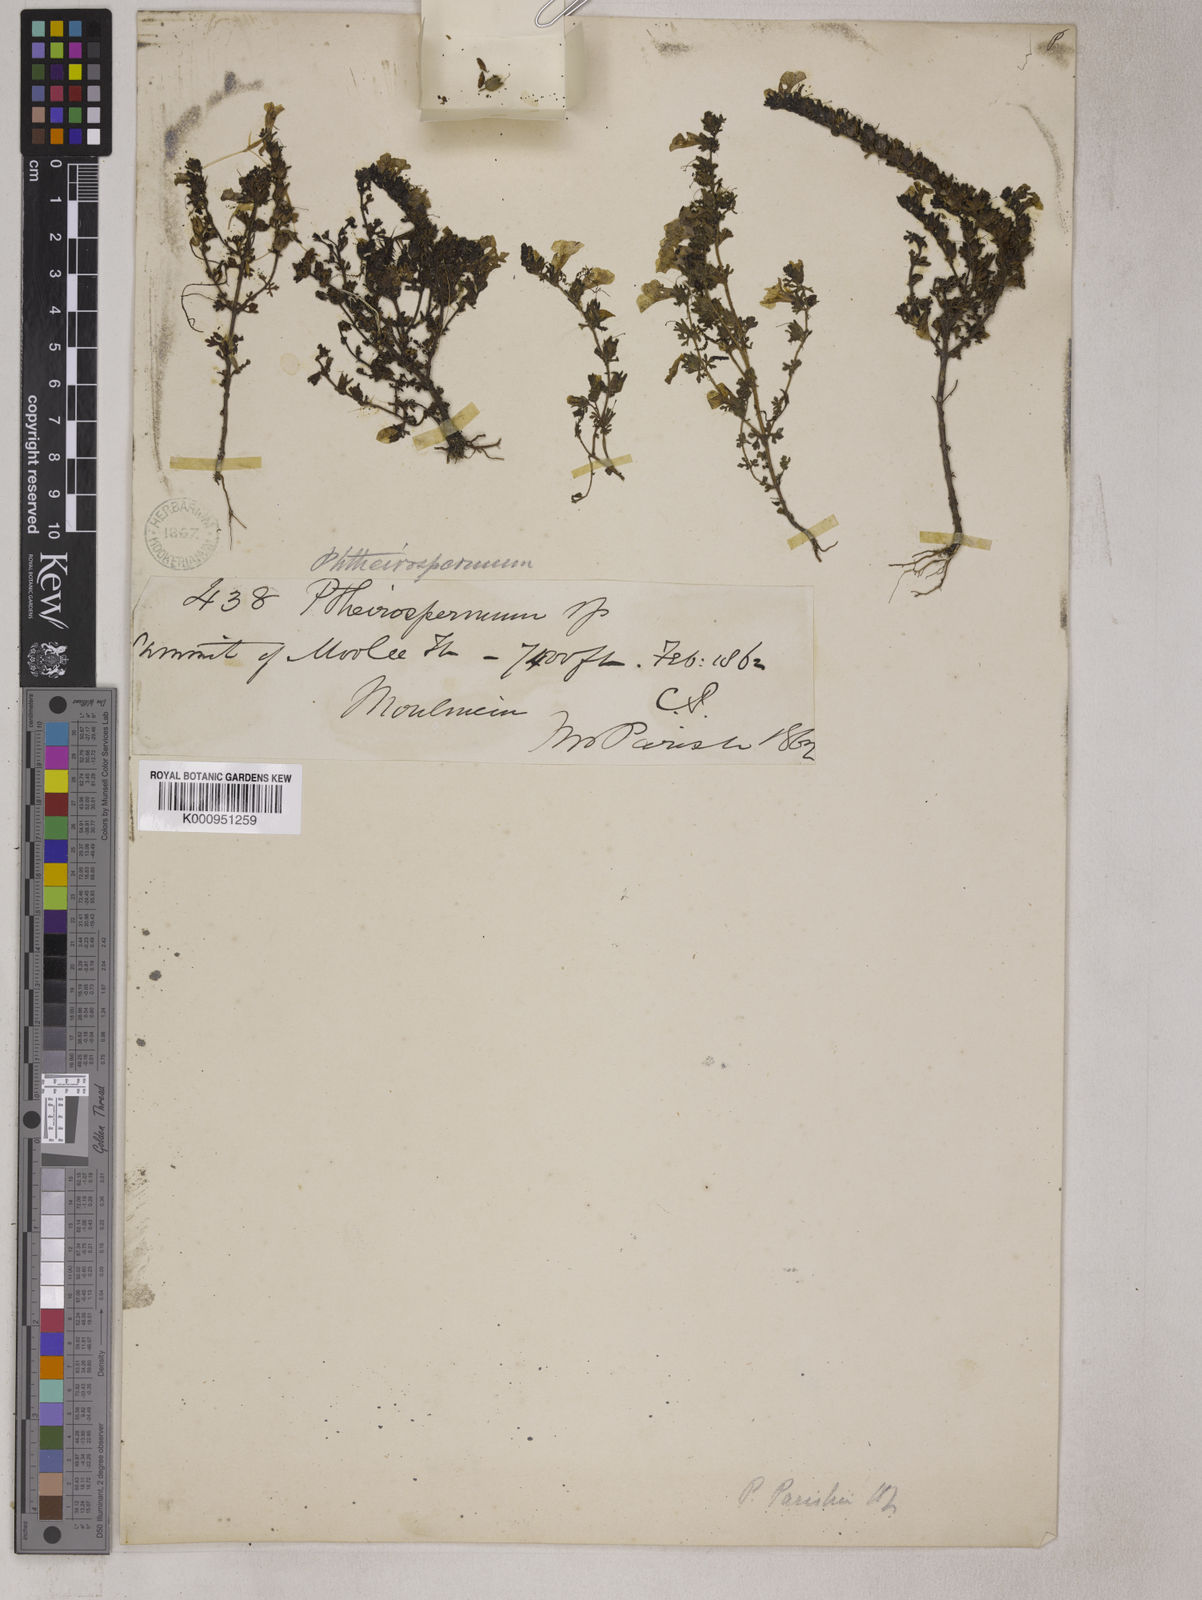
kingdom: Plantae
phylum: Tracheophyta
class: Magnoliopsida
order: Lamiales
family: Orobanchaceae
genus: Pterygiella
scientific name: Pterygiella parishii
